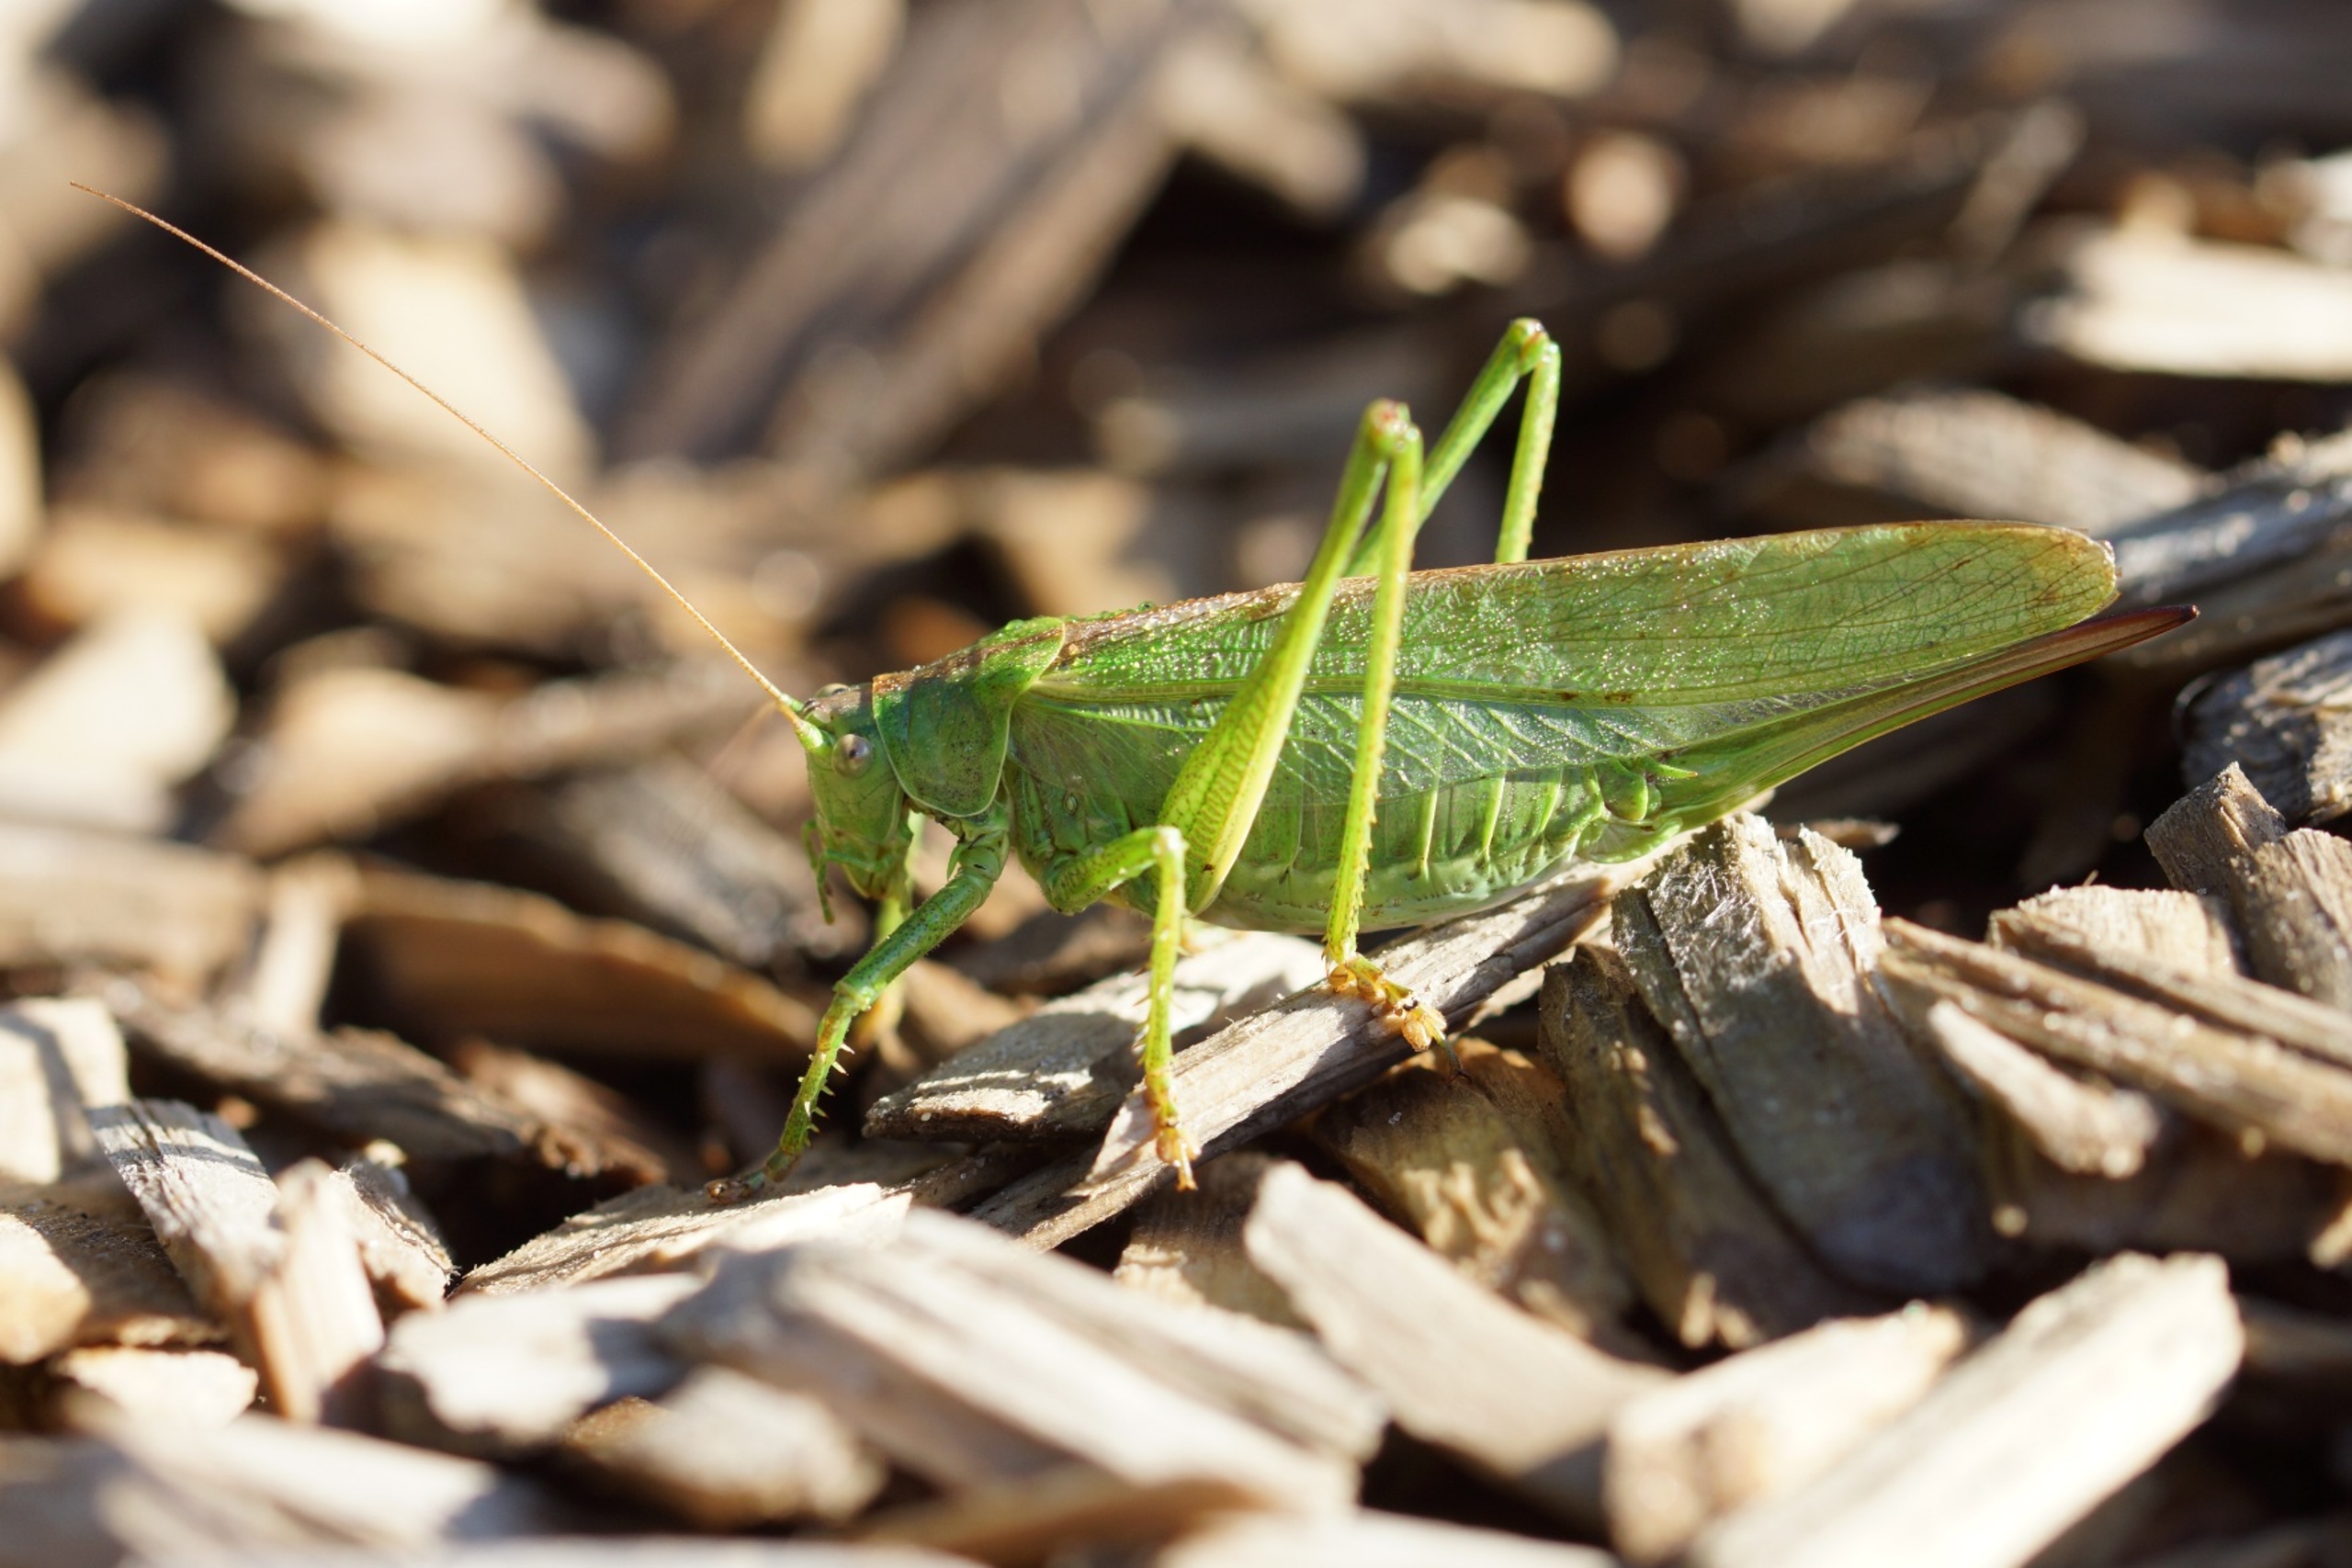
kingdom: Animalia
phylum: Arthropoda
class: Insecta
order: Orthoptera
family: Tettigoniidae
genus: Tettigonia
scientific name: Tettigonia viridissima
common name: Stor grøn løvgræshoppe
